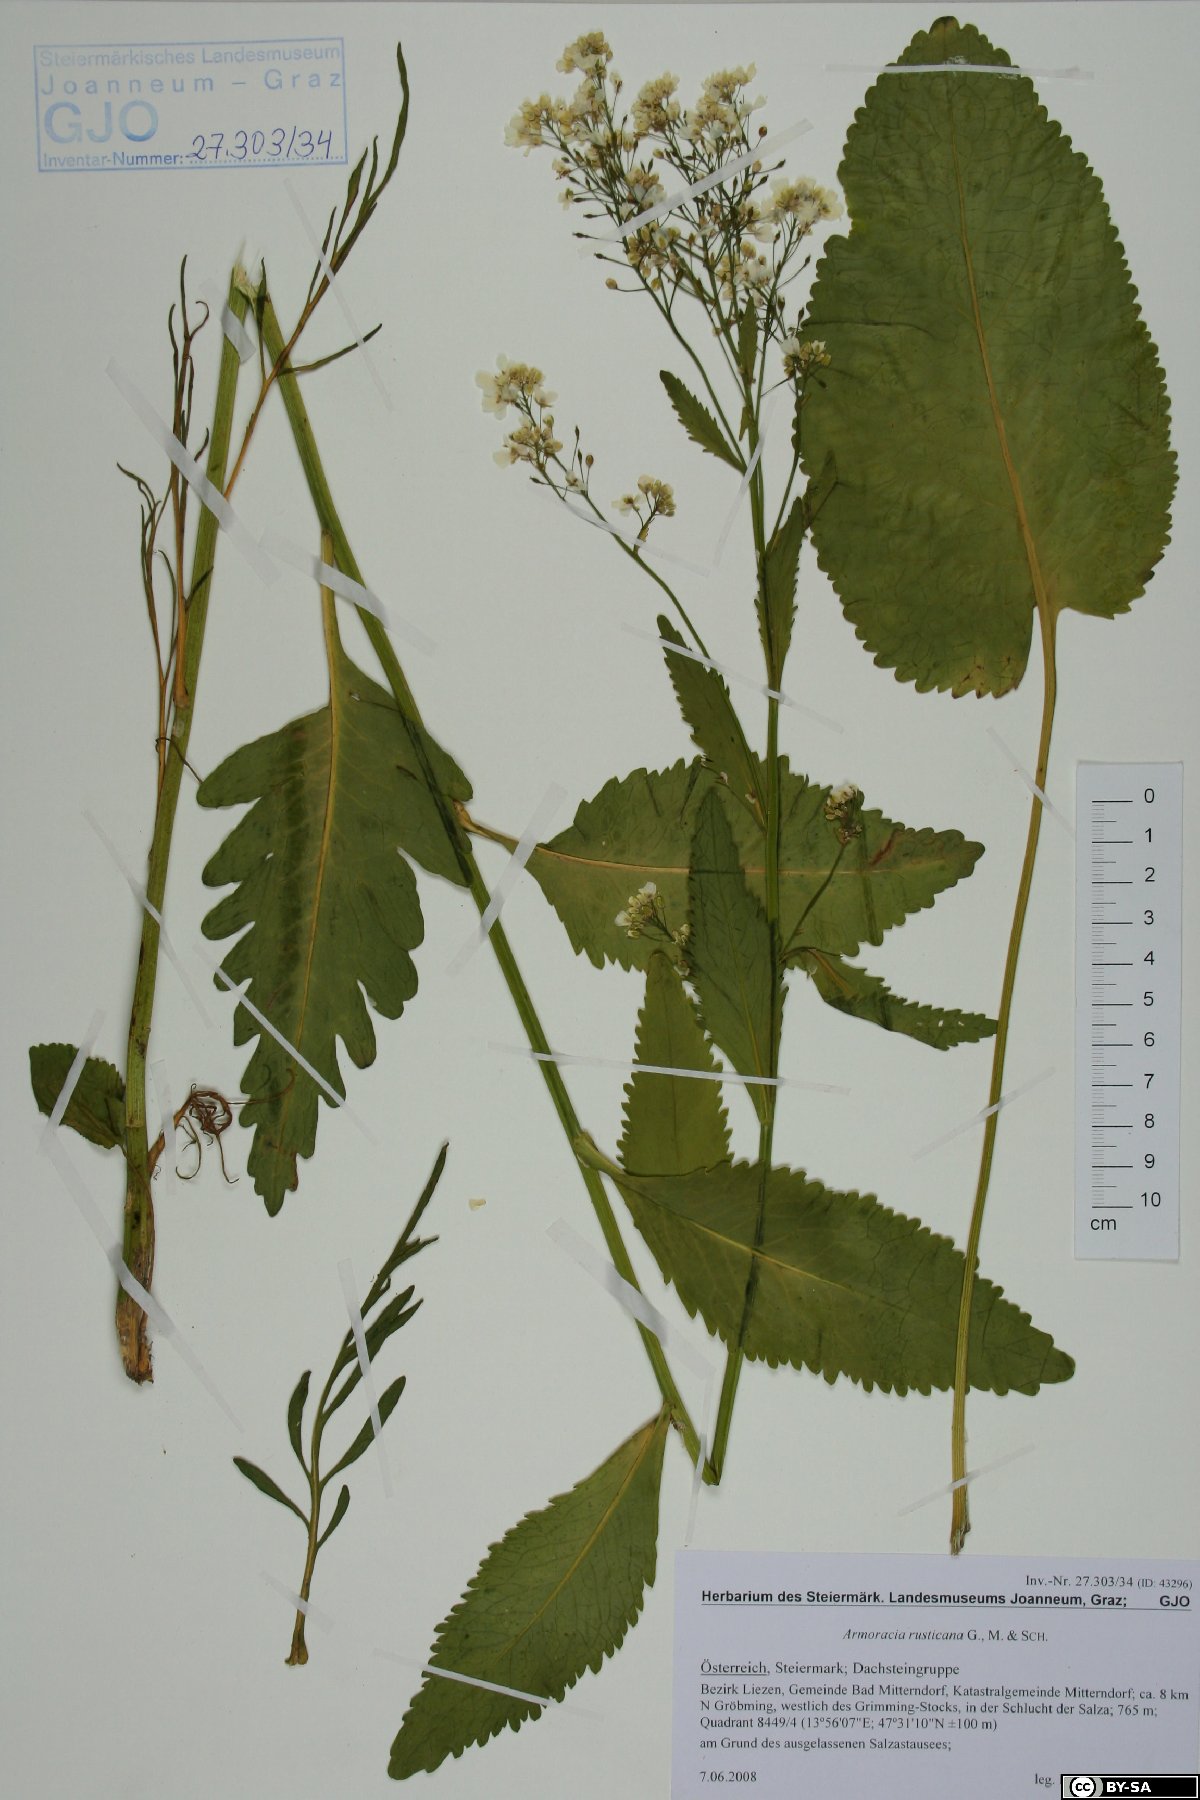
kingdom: Plantae
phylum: Tracheophyta
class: Magnoliopsida
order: Brassicales
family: Brassicaceae
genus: Armoracia
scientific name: Armoracia rusticana
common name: Horseradish
